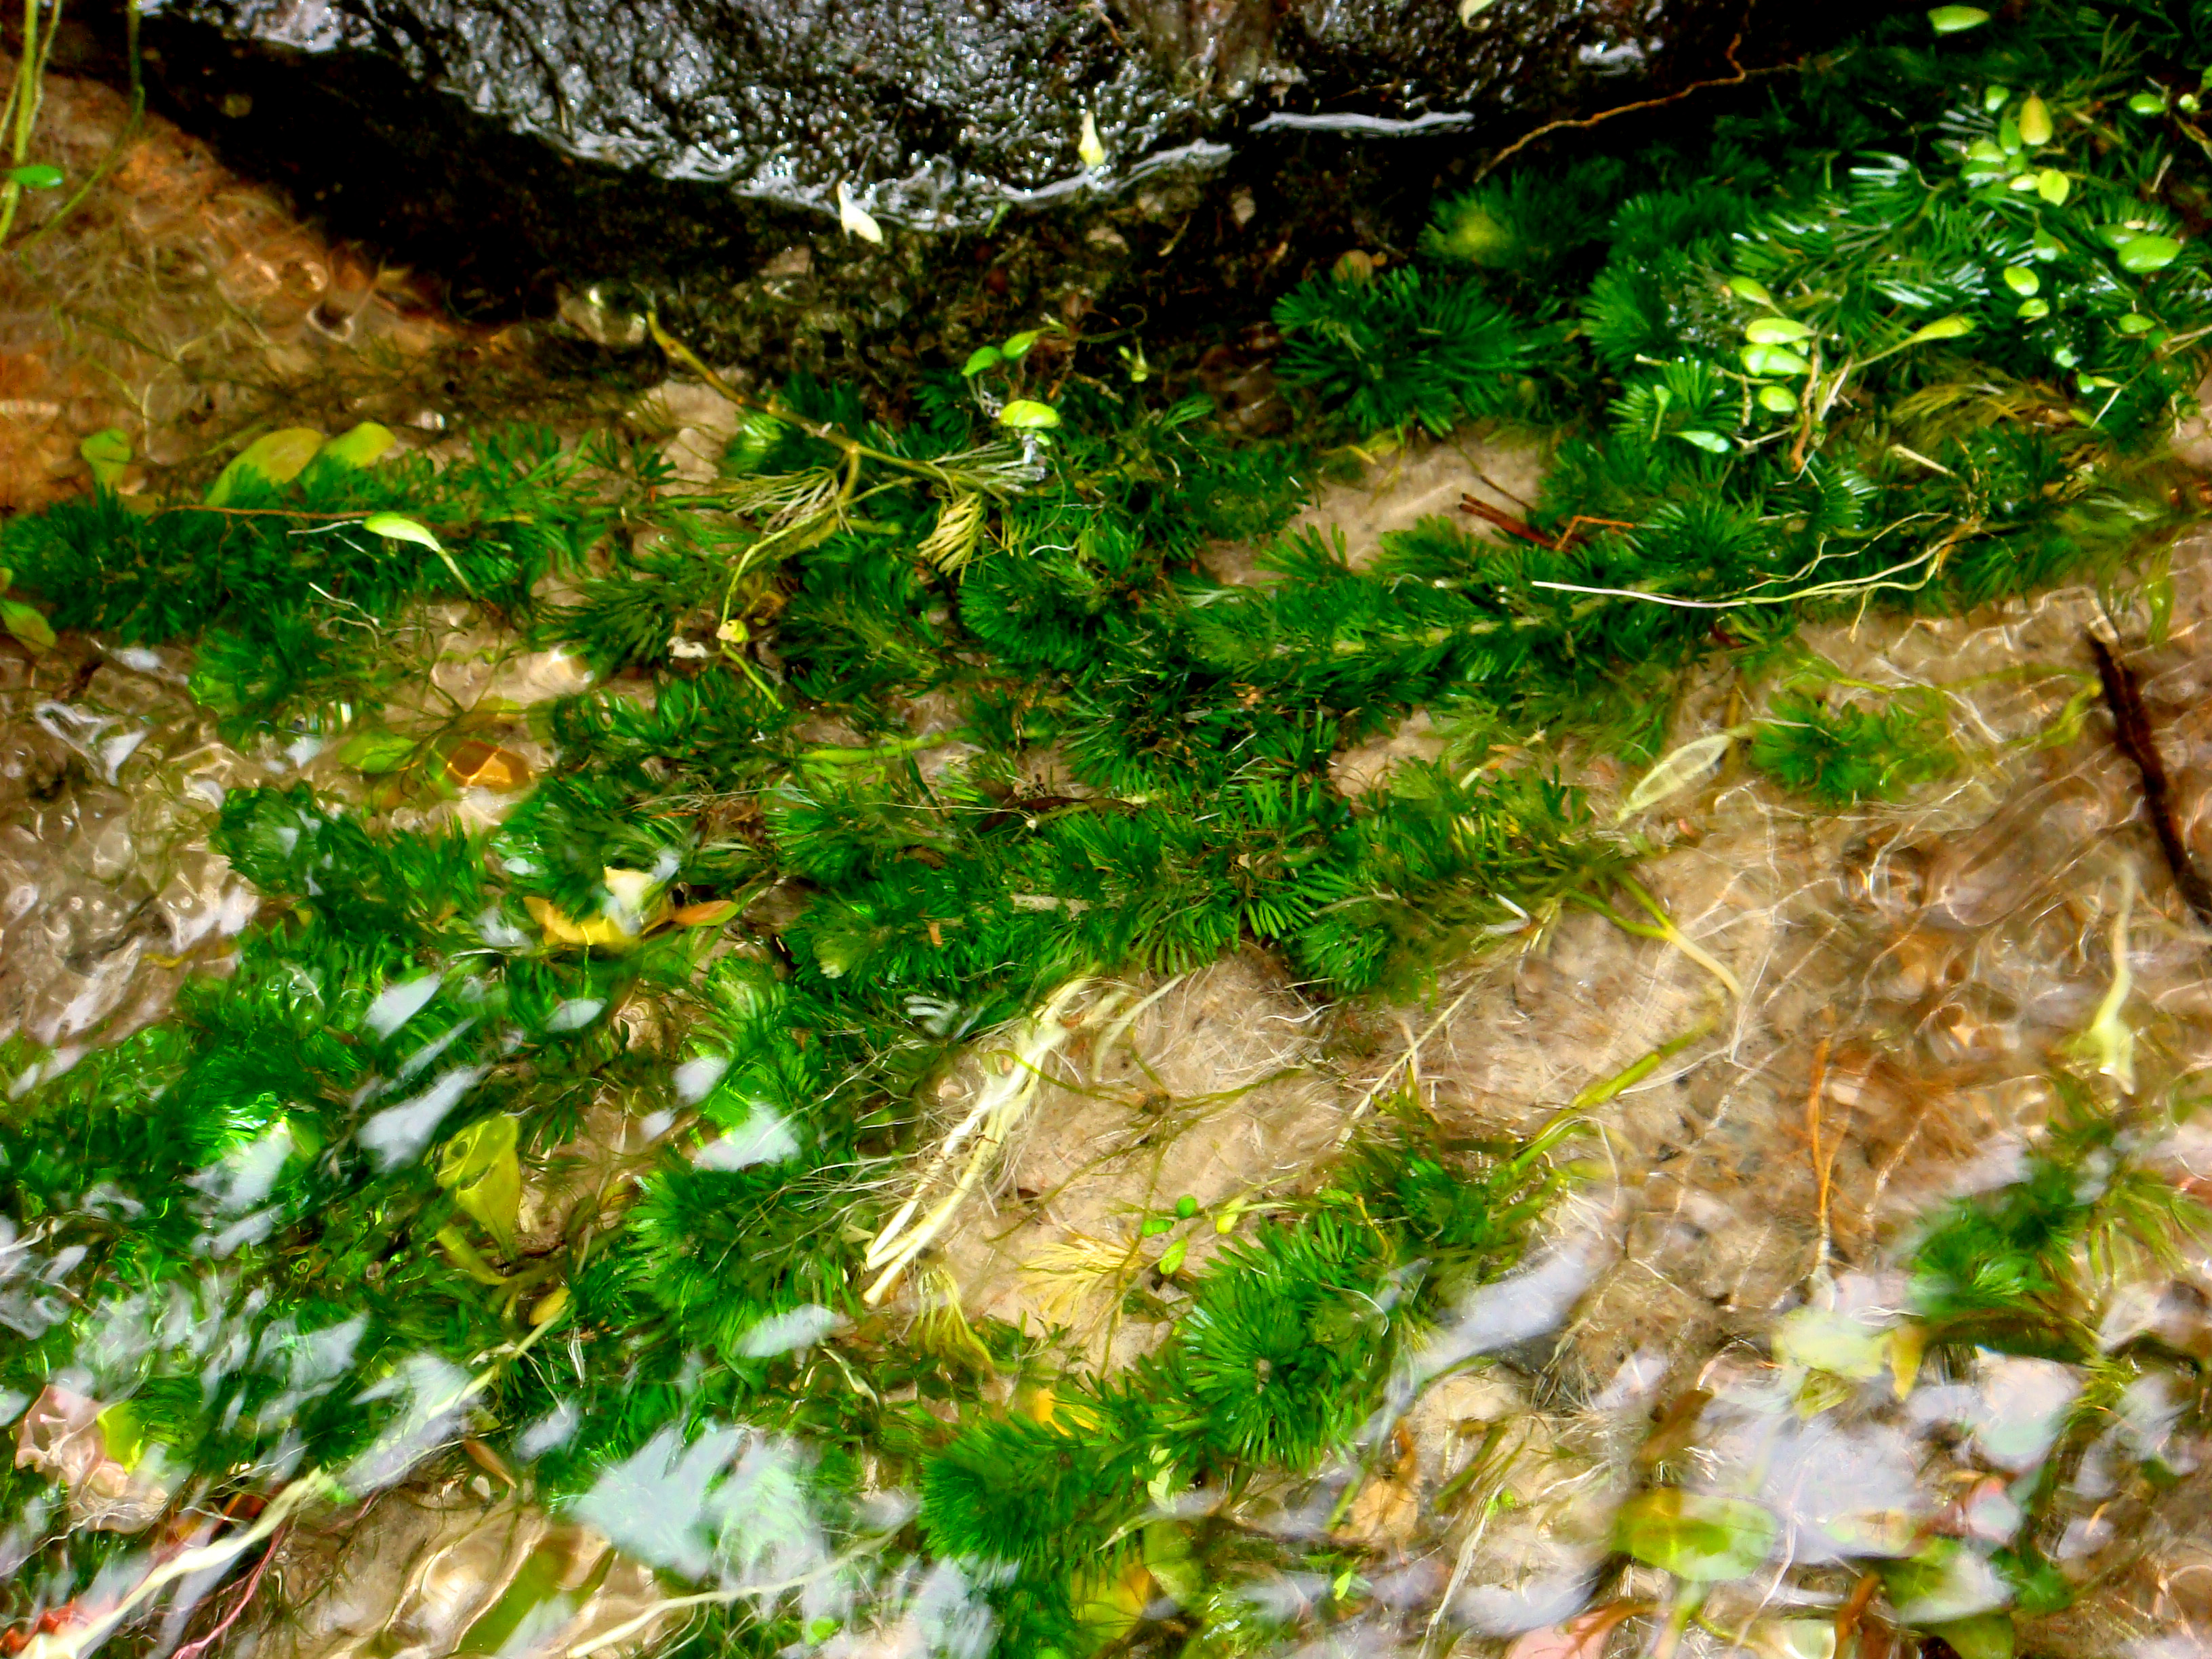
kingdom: Plantae
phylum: Tracheophyta
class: Magnoliopsida
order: Brassicales
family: Brassicaceae
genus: Conringia
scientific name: Conringia orientalis
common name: Hare's ear mustard
